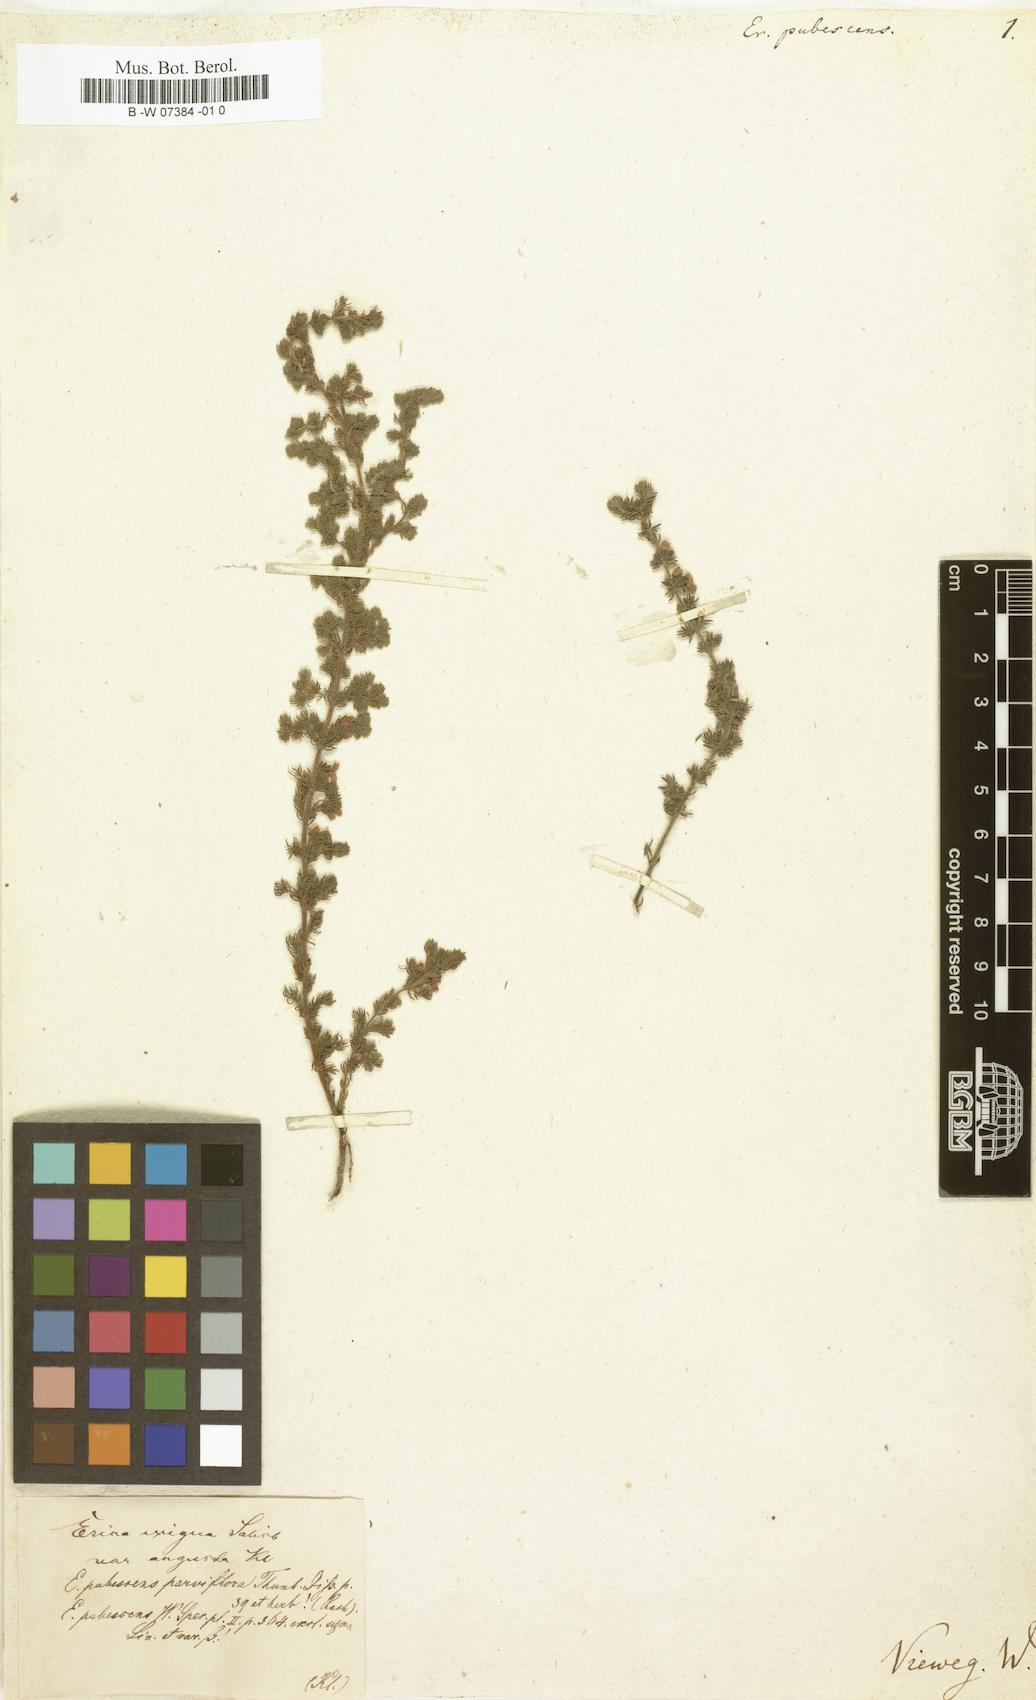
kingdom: Plantae
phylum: Tracheophyta
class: Magnoliopsida
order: Ericales
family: Ericaceae
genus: Erica
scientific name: Erica pubescens
